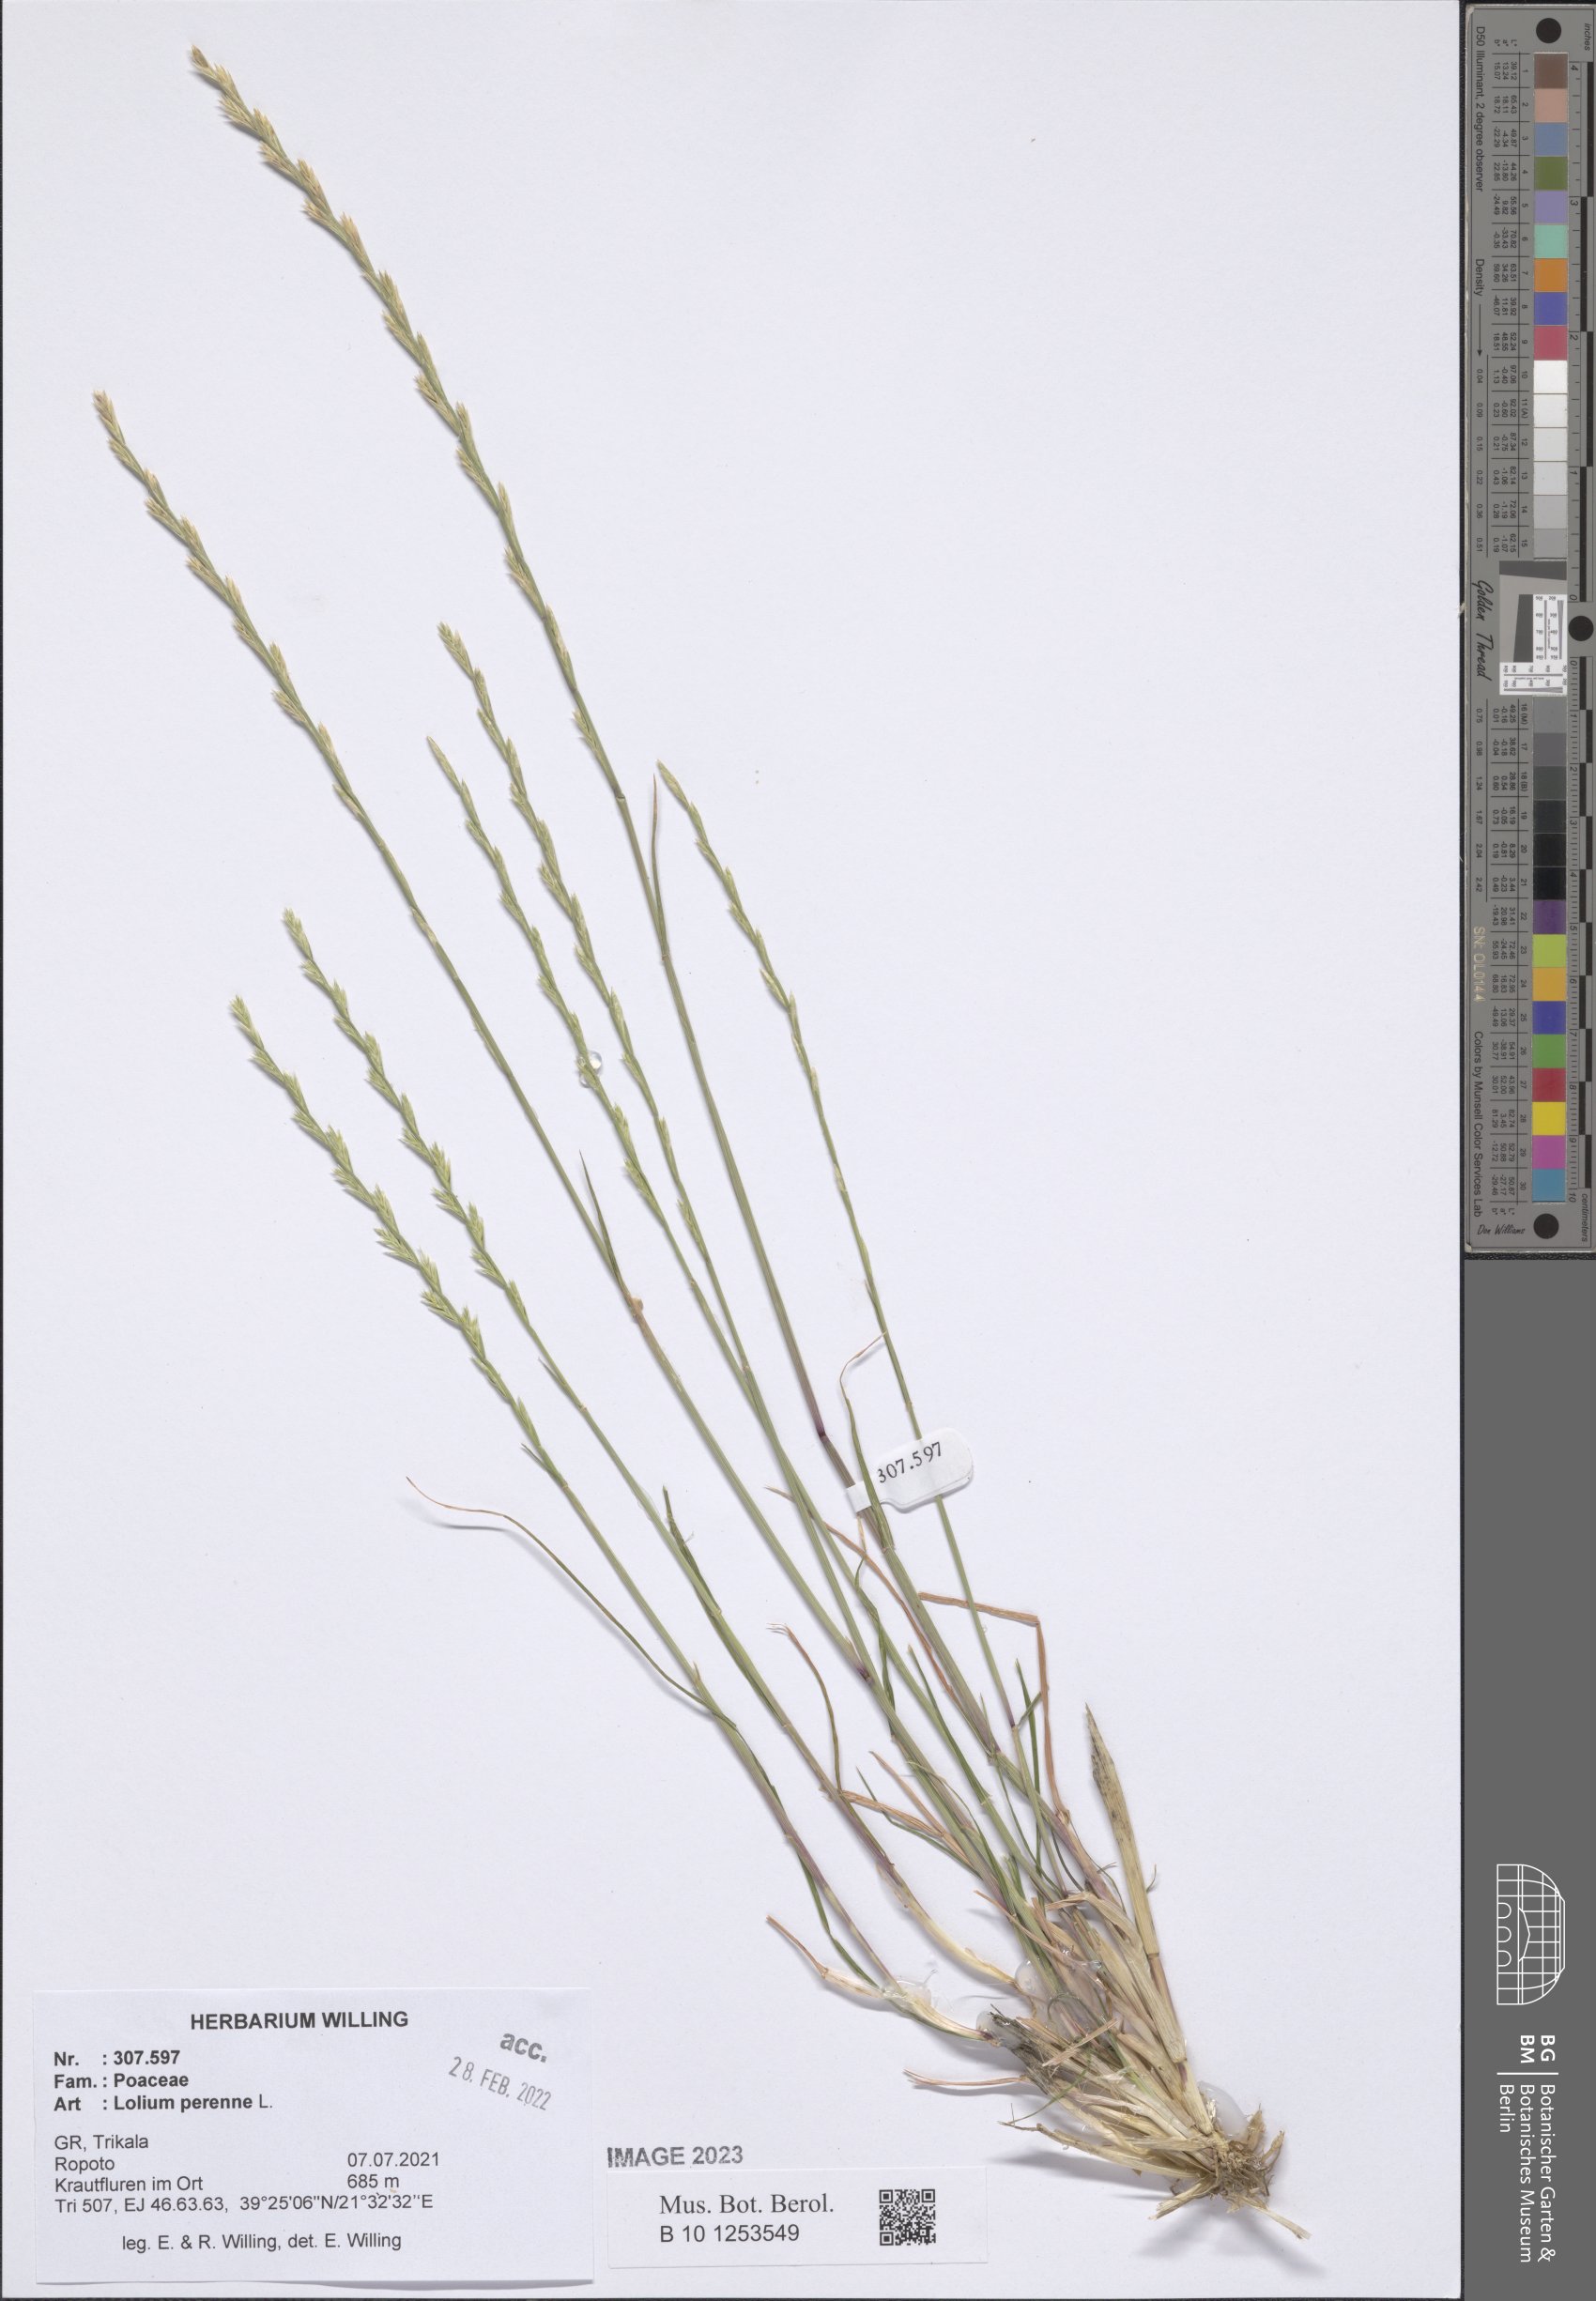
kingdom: Plantae
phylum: Tracheophyta
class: Liliopsida
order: Poales
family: Poaceae
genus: Lolium
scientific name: Lolium perenne
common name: Perennial ryegrass
